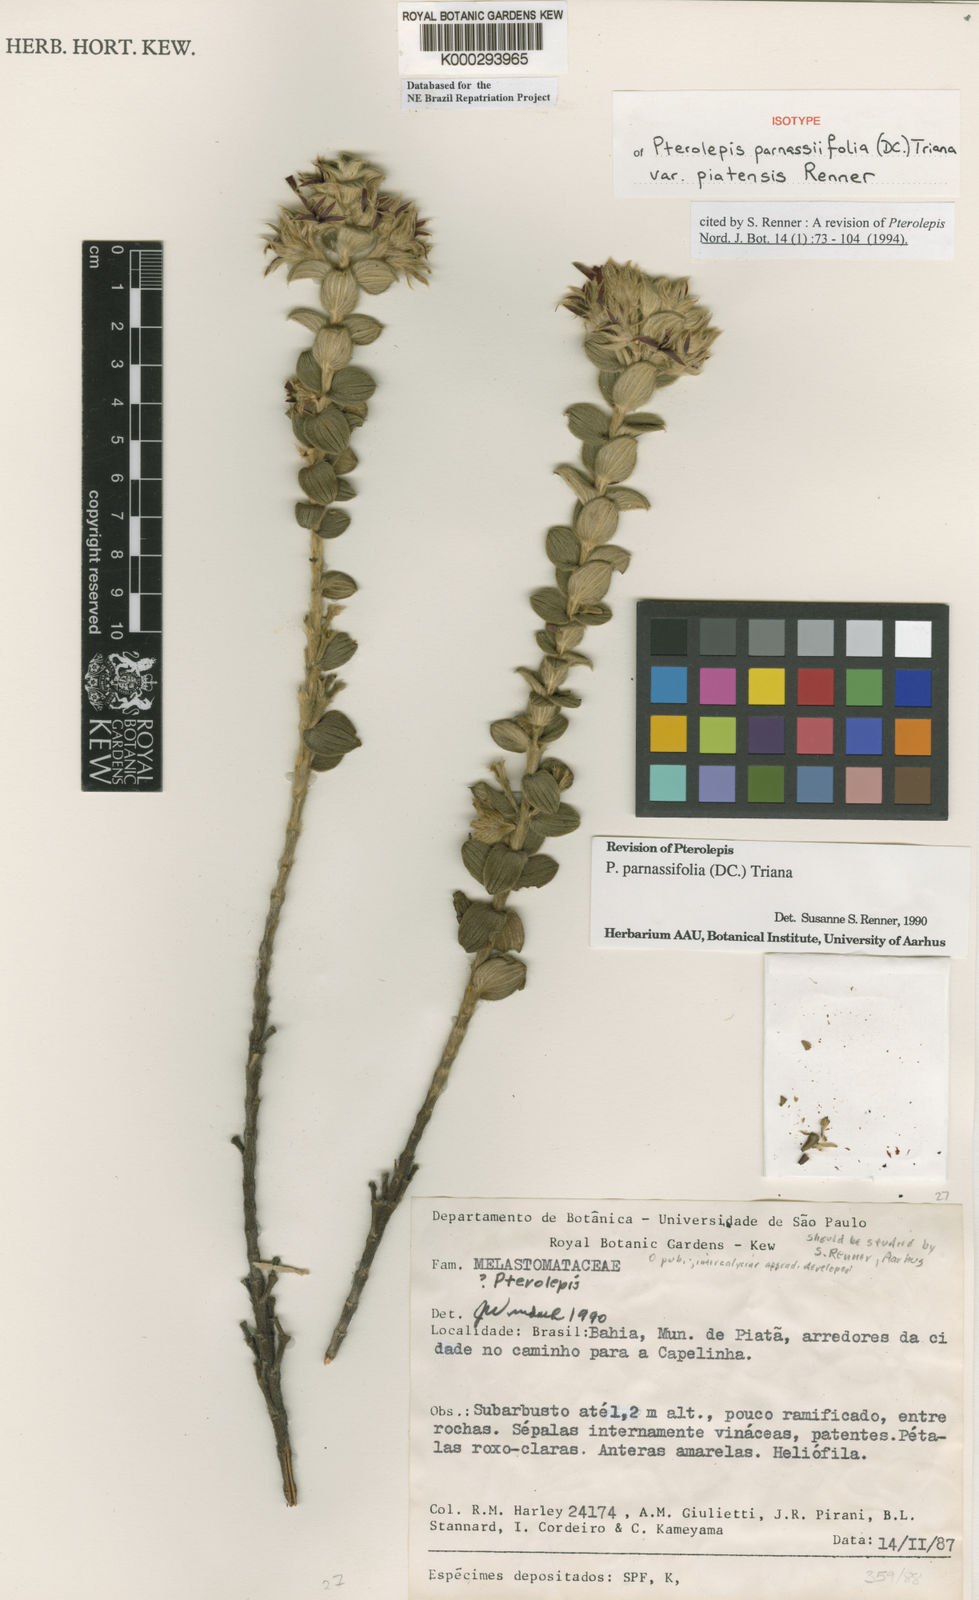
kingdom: Plantae
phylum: Tracheophyta
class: Magnoliopsida
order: Myrtales
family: Melastomataceae
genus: Pterolepis
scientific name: Pterolepis piatensis
